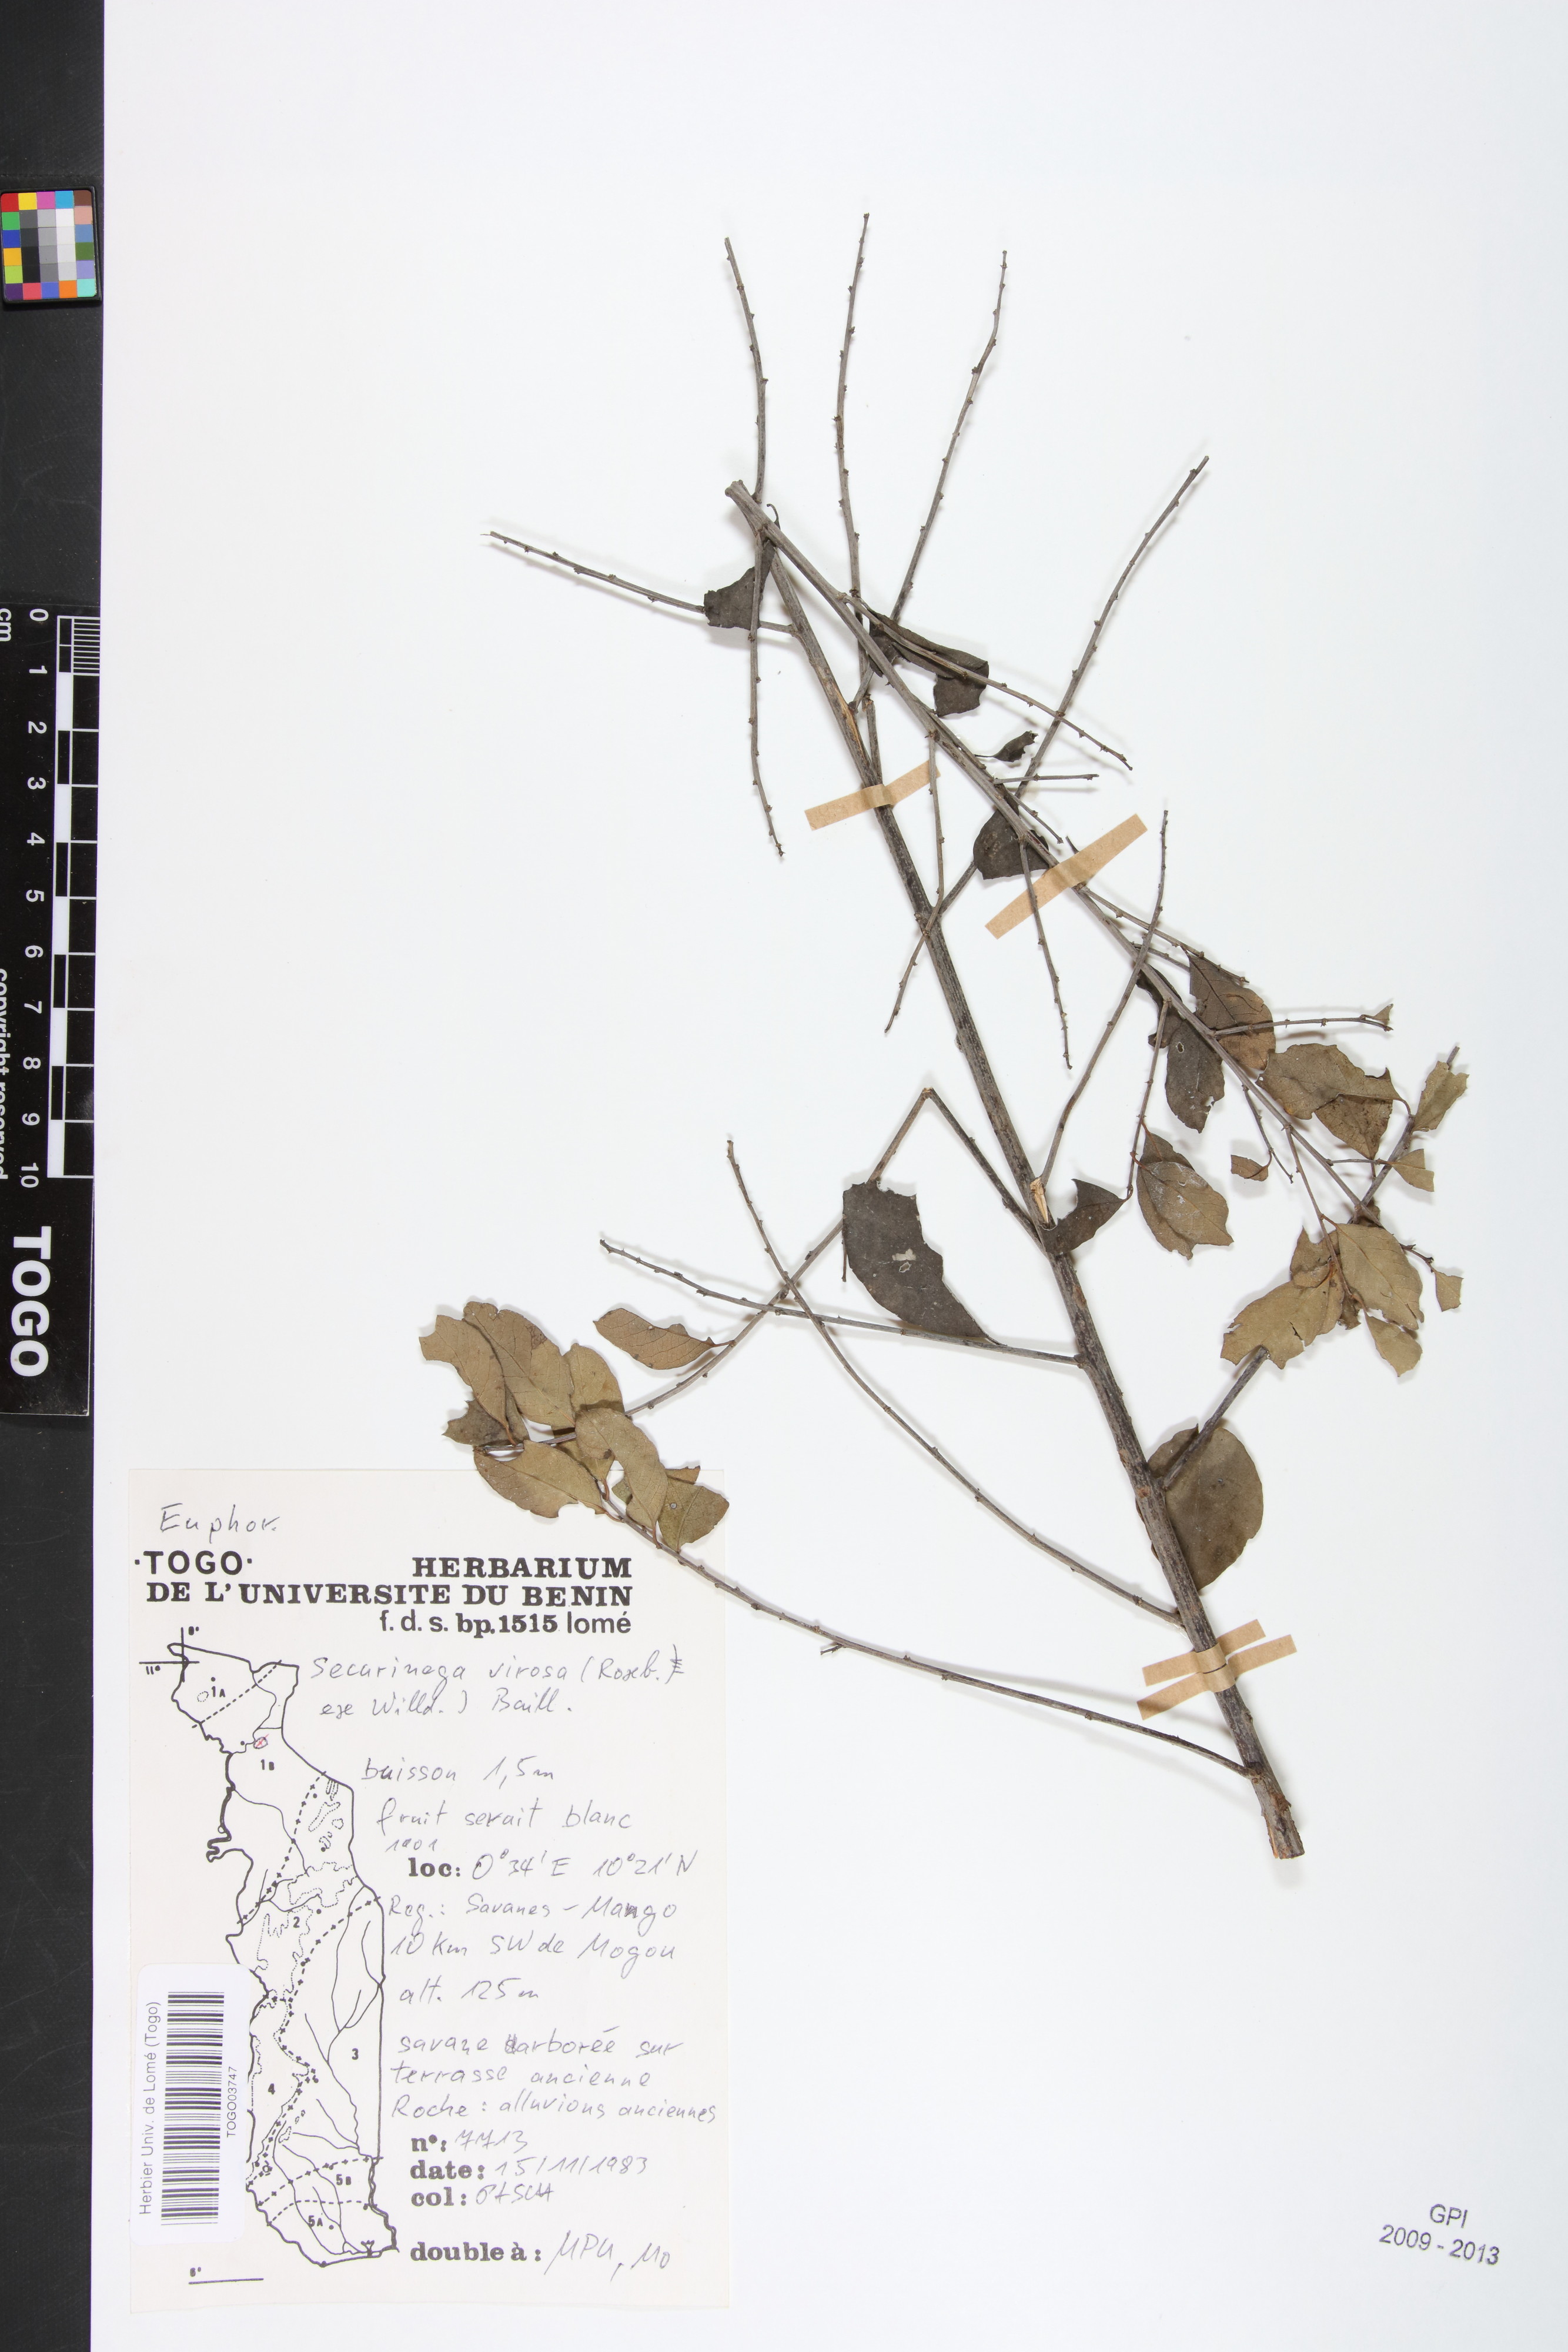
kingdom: Plantae
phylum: Tracheophyta
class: Magnoliopsida
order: Malpighiales
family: Phyllanthaceae
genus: Flueggea
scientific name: Flueggea virosa
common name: Common bushweed
